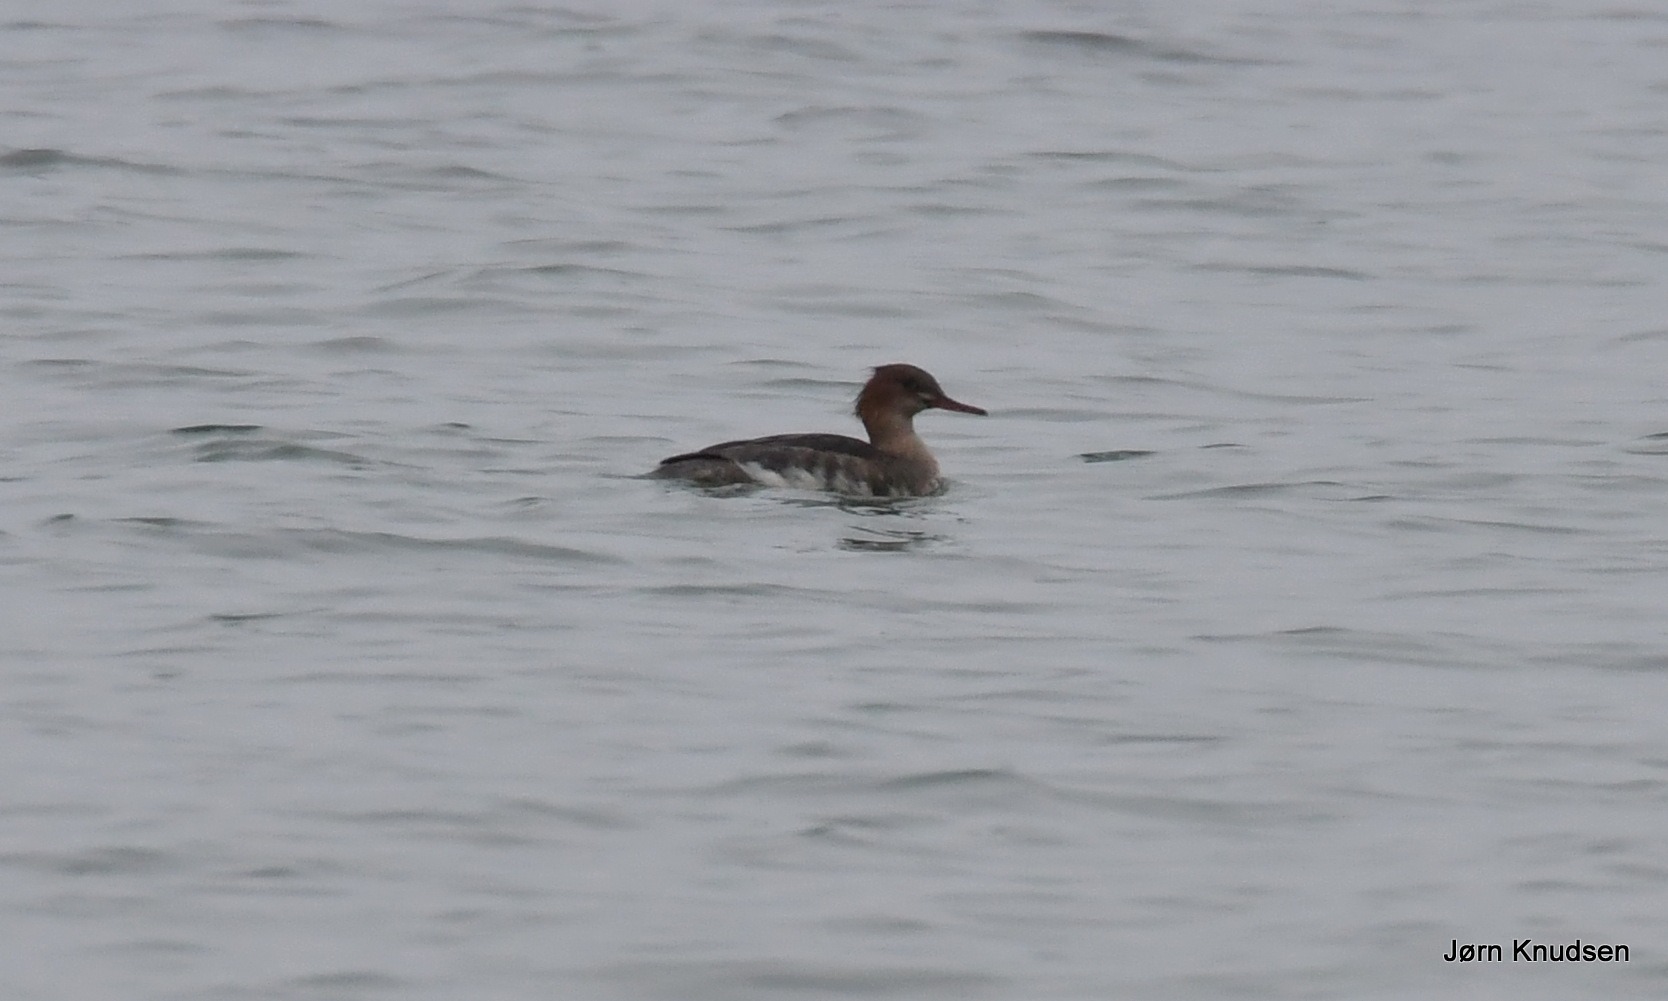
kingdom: Animalia
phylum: Chordata
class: Aves
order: Anseriformes
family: Anatidae
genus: Mergus
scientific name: Mergus serrator
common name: Toppet skallesluger
